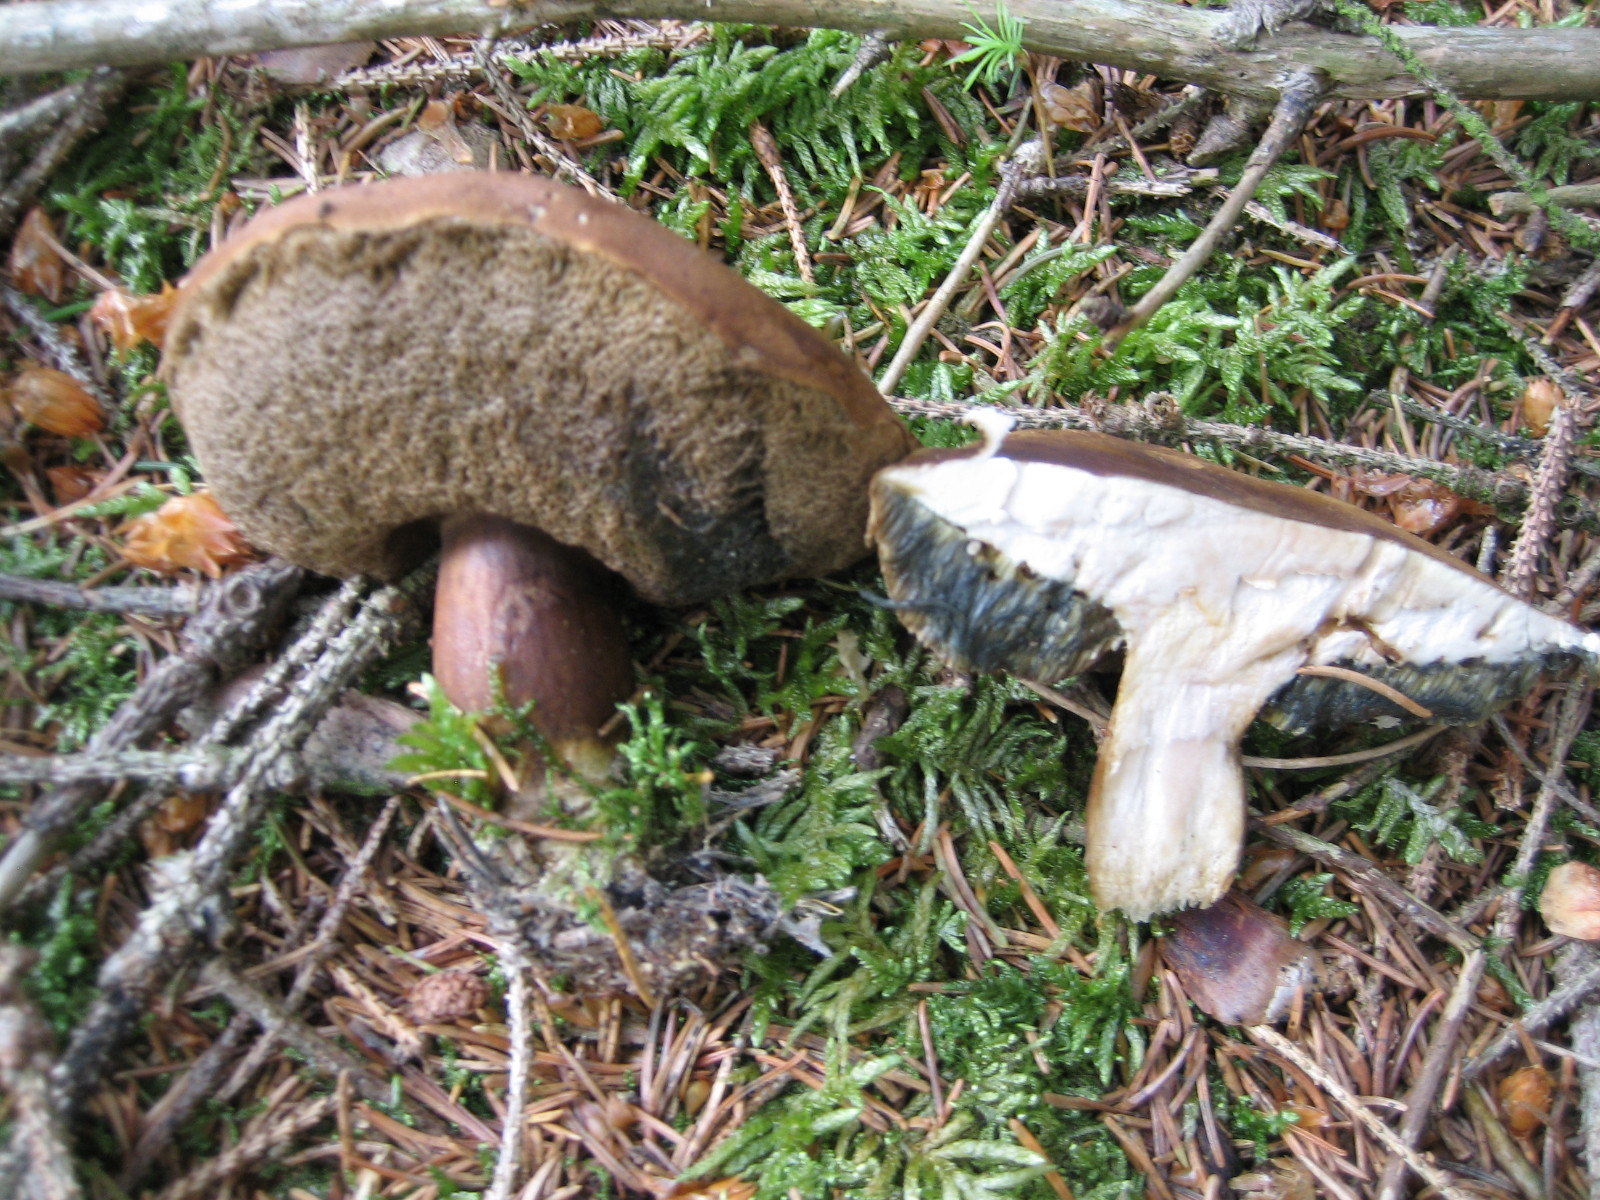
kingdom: Fungi
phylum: Basidiomycota
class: Agaricomycetes
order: Boletales
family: Boletaceae
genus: Imleria
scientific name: Imleria badia
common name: brunstokket rørhat
